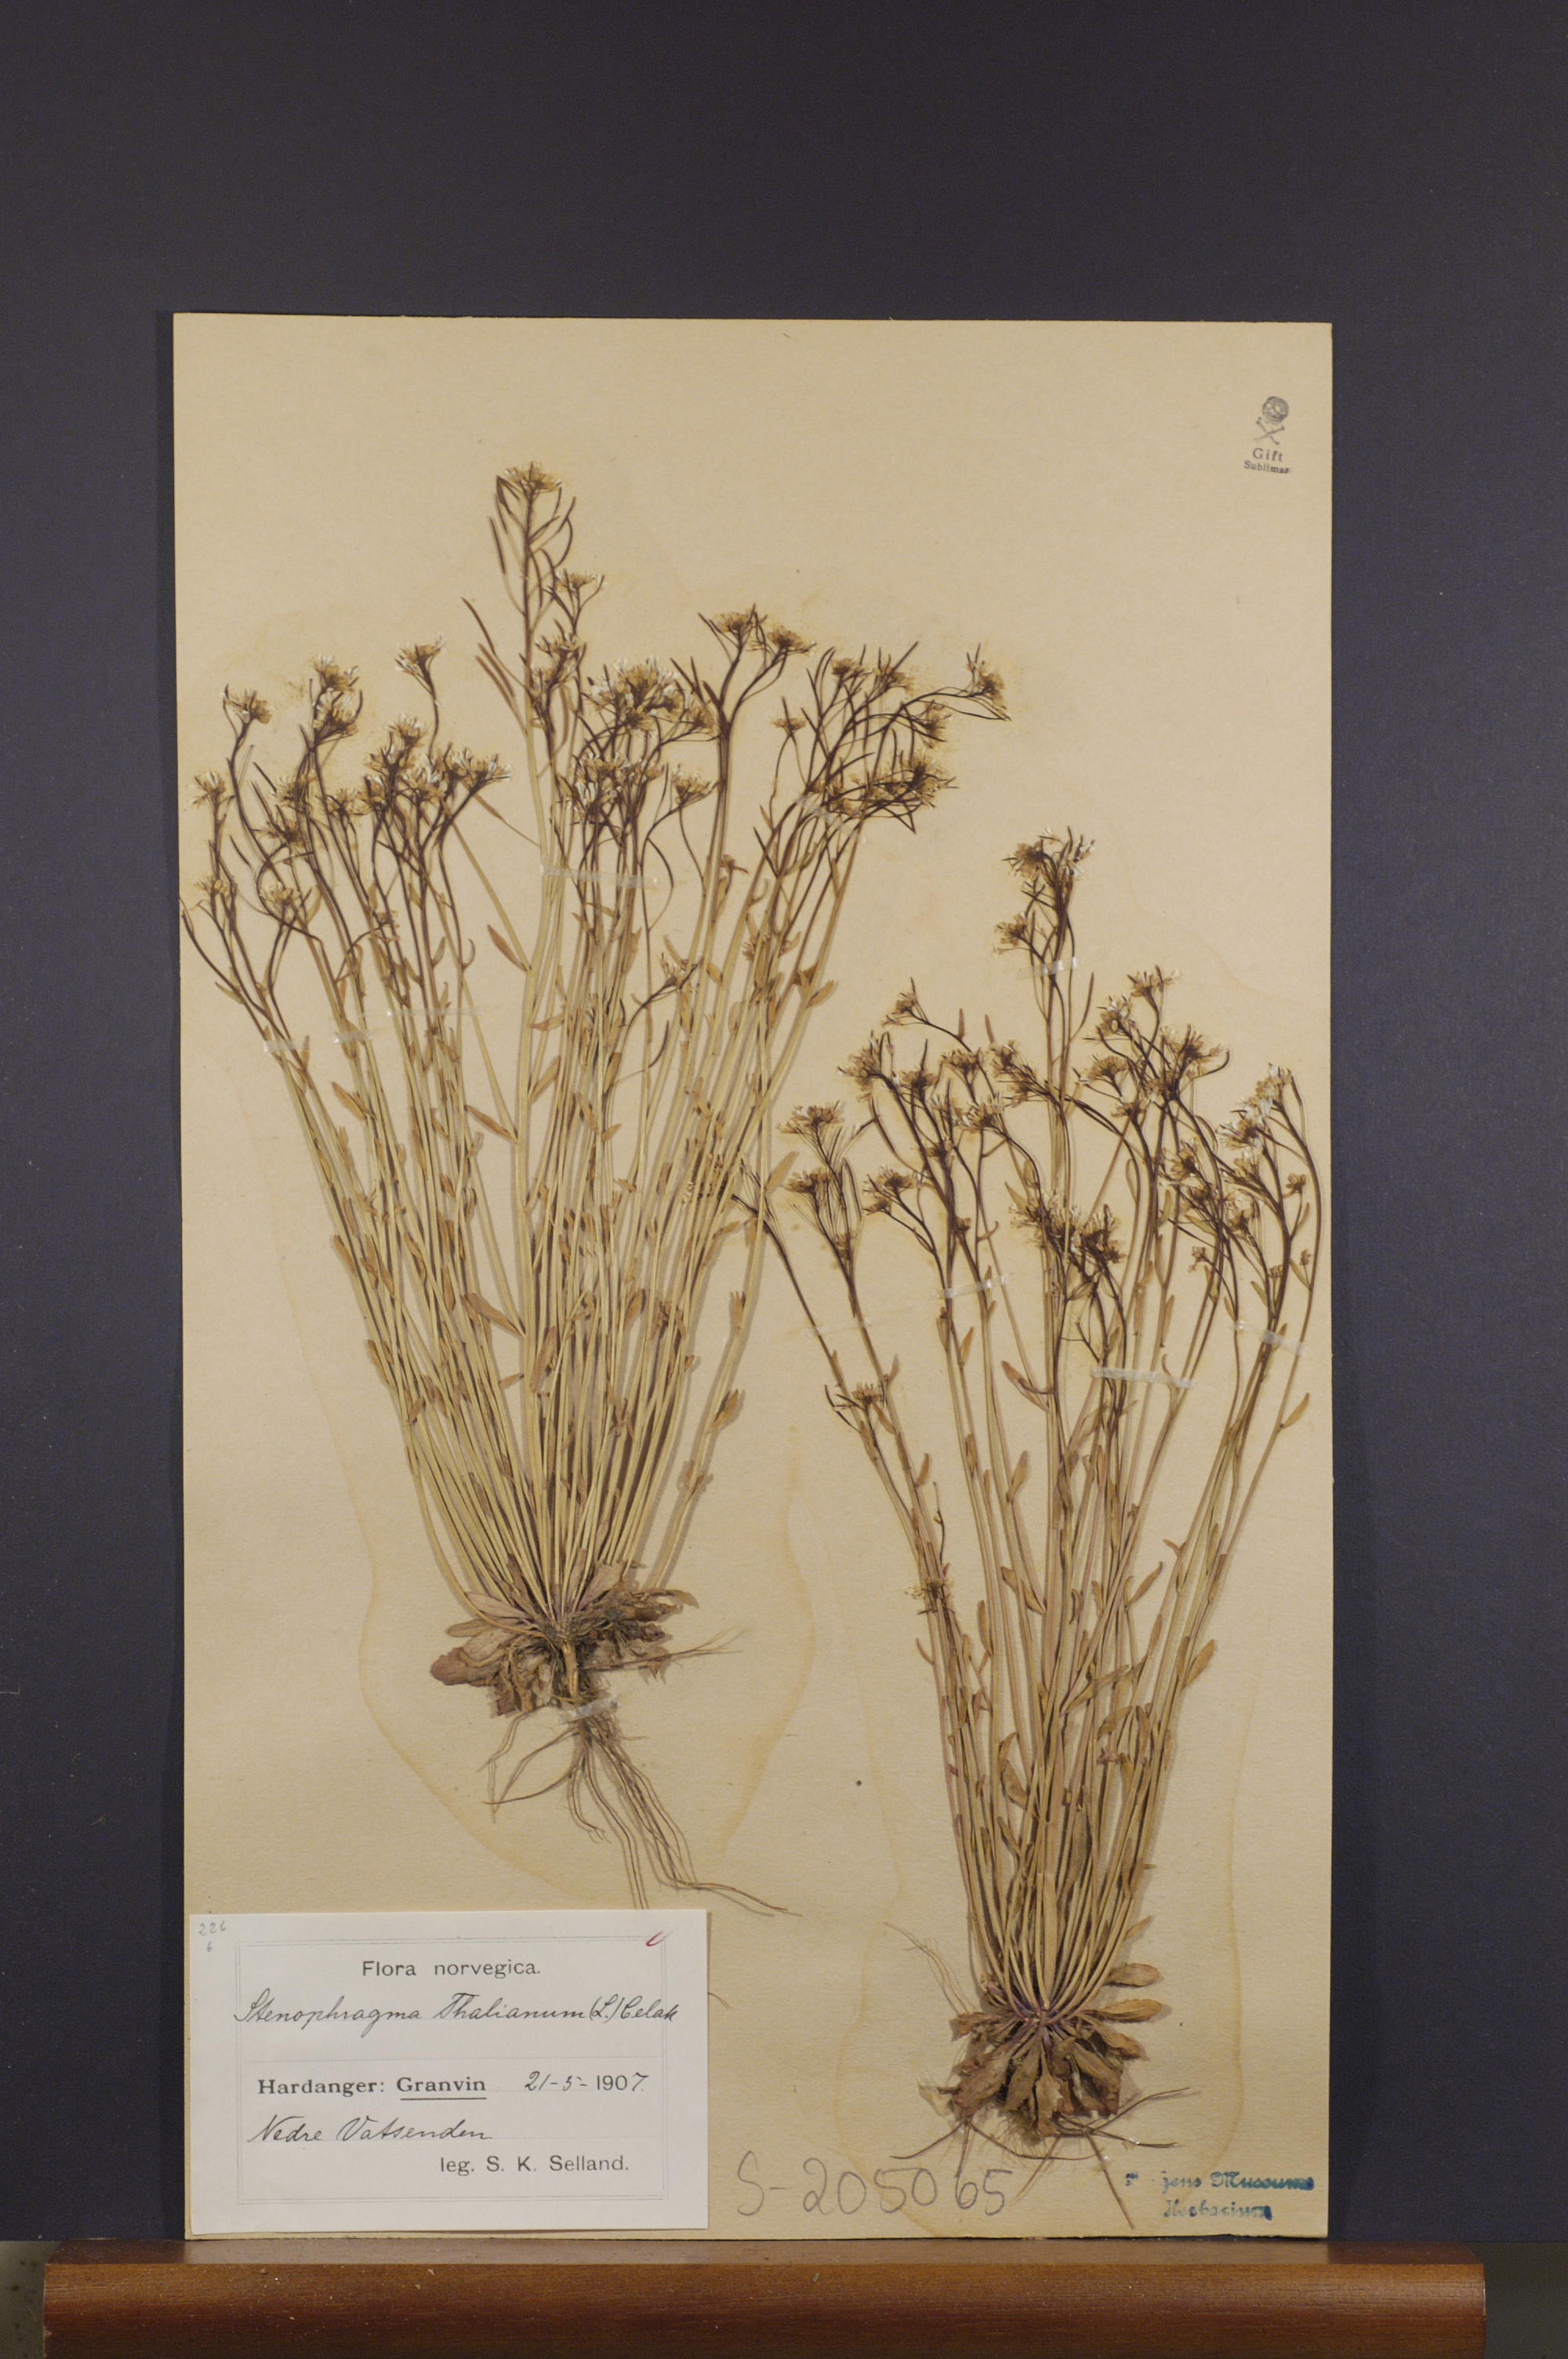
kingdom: Plantae
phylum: Tracheophyta
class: Magnoliopsida
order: Brassicales
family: Brassicaceae
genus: Arabidopsis
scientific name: Arabidopsis thaliana
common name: Thale cress
